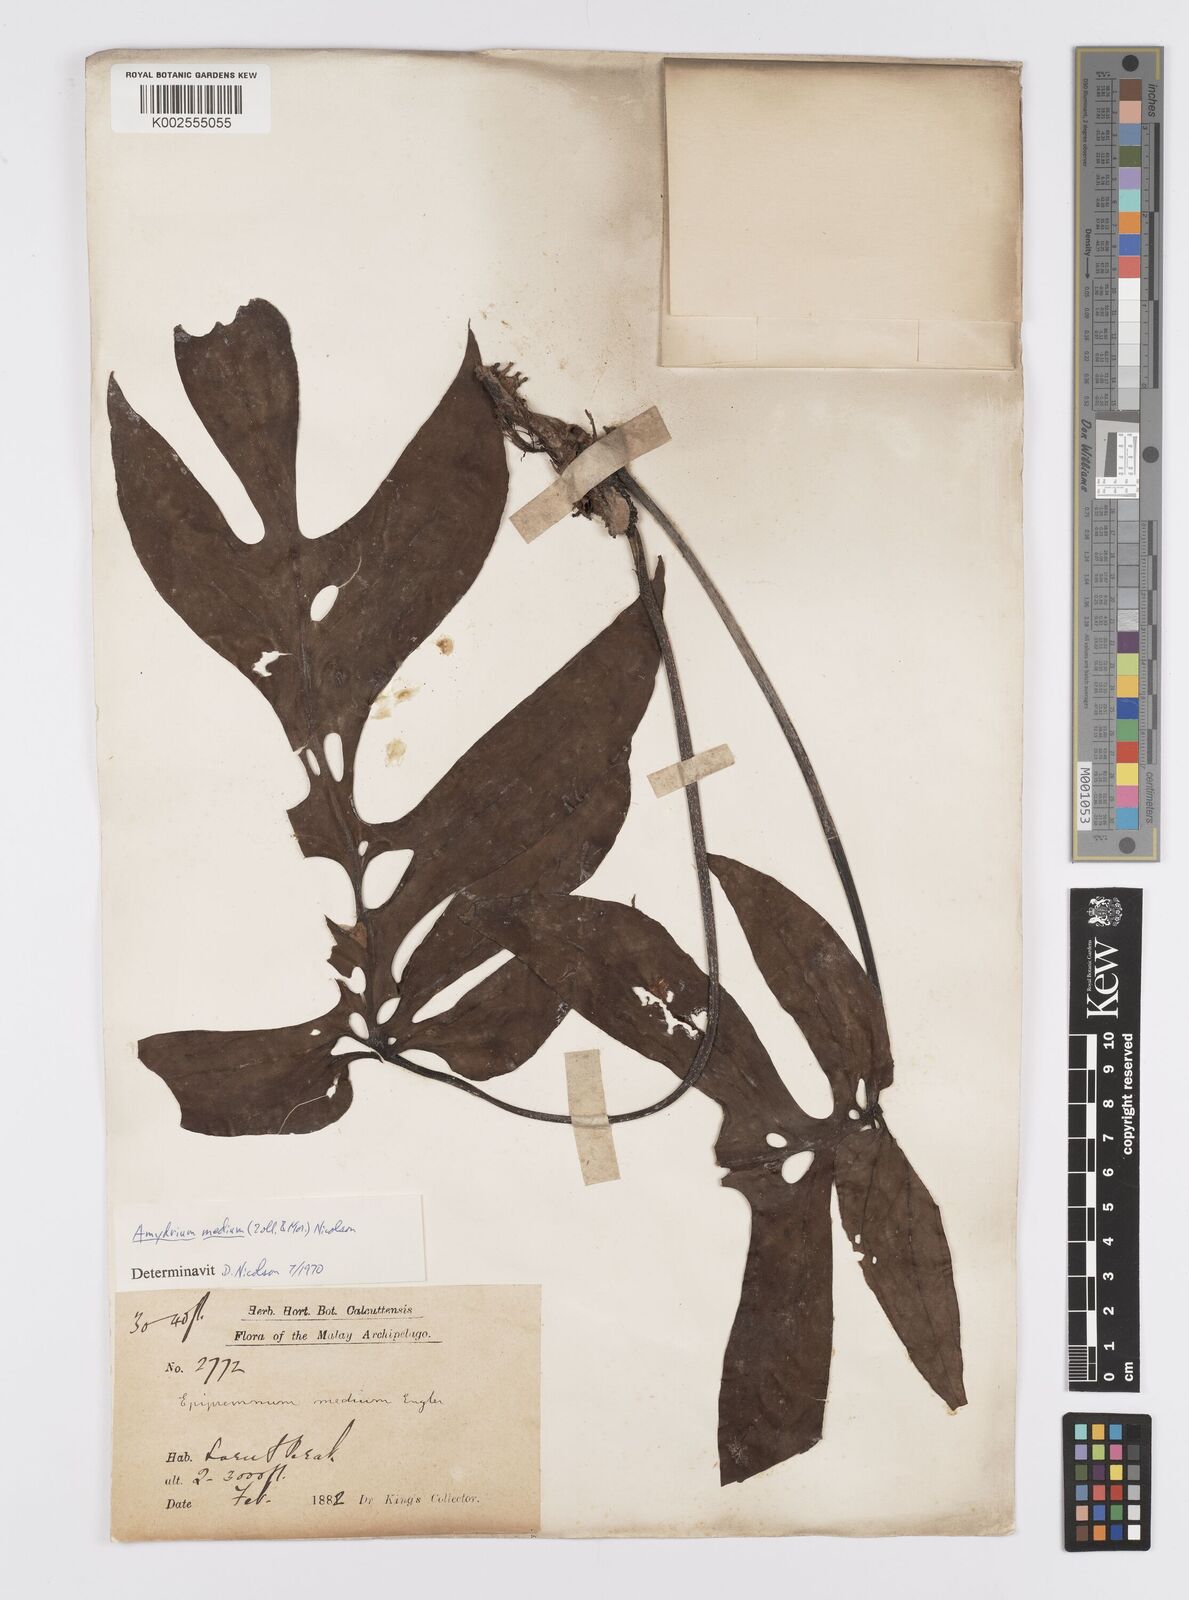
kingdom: Plantae
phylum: Tracheophyta
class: Liliopsida
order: Alismatales
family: Araceae
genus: Amydrium
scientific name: Amydrium medium
